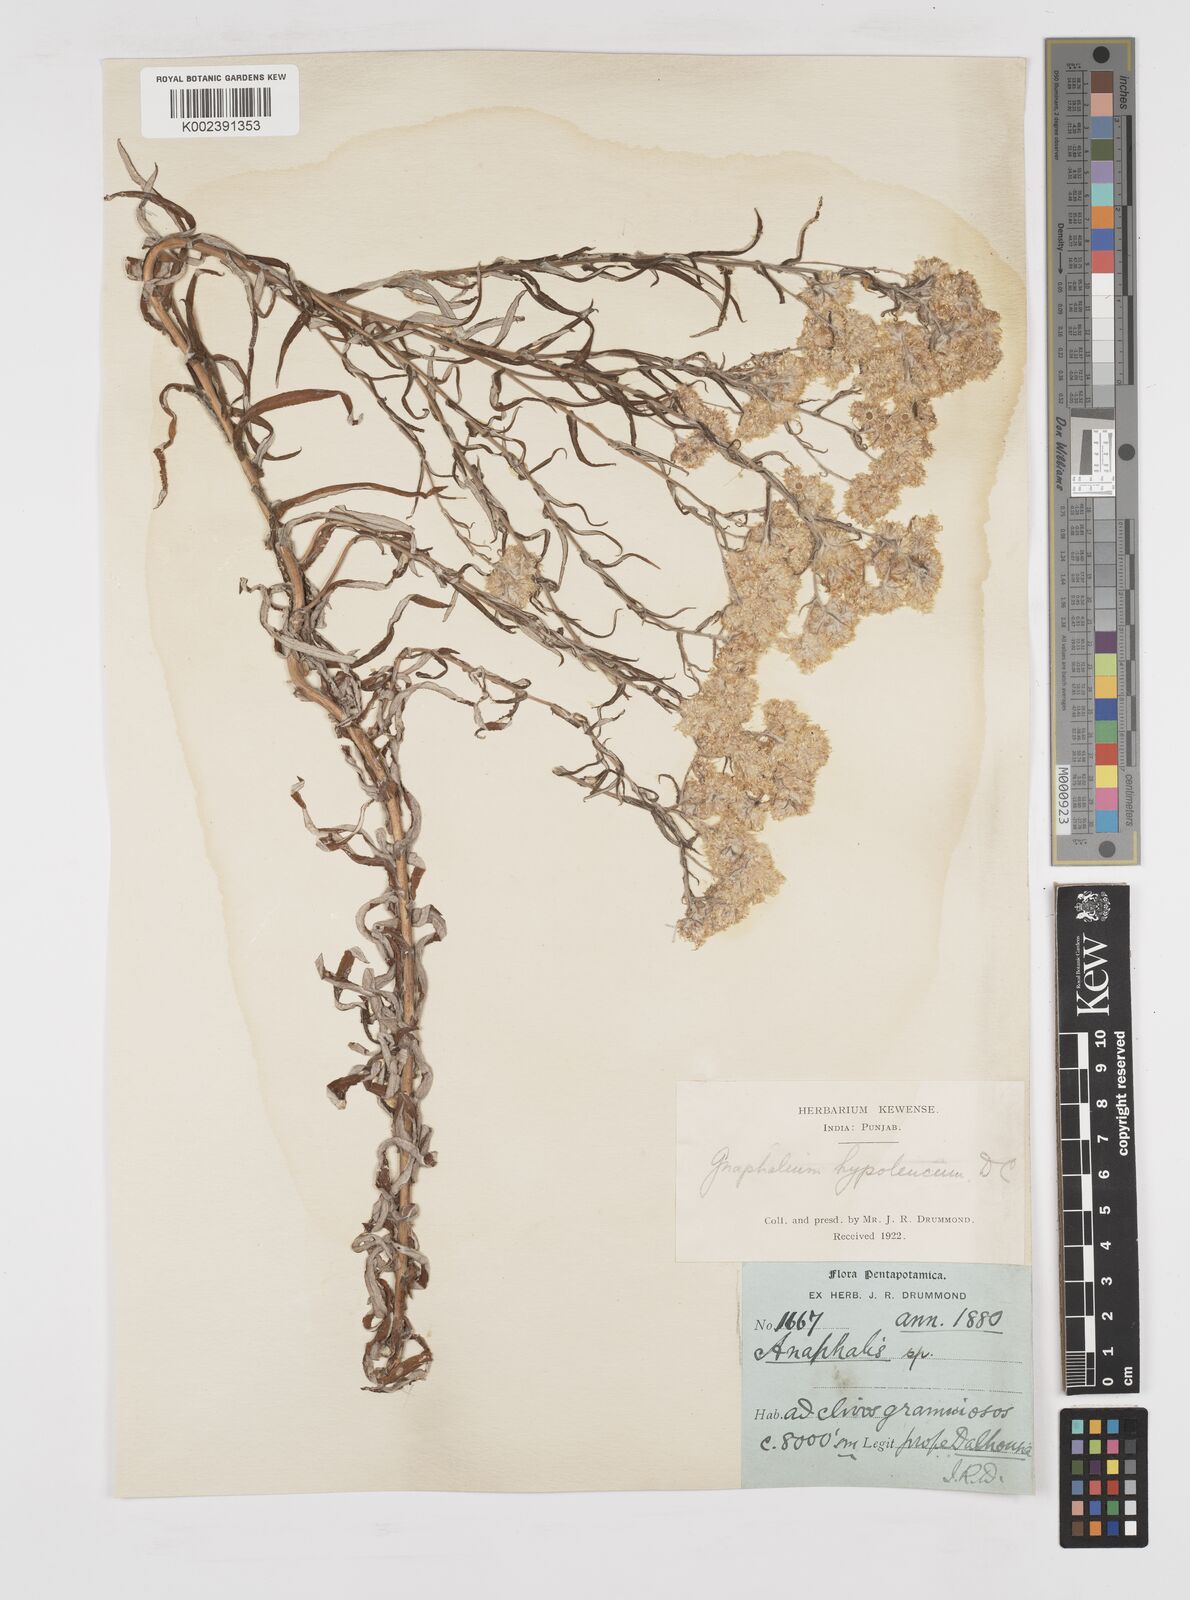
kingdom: Plantae
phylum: Tracheophyta
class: Magnoliopsida
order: Asterales
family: Asteraceae
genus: Pseudognaphalium
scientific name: Pseudognaphalium hypoleucum
